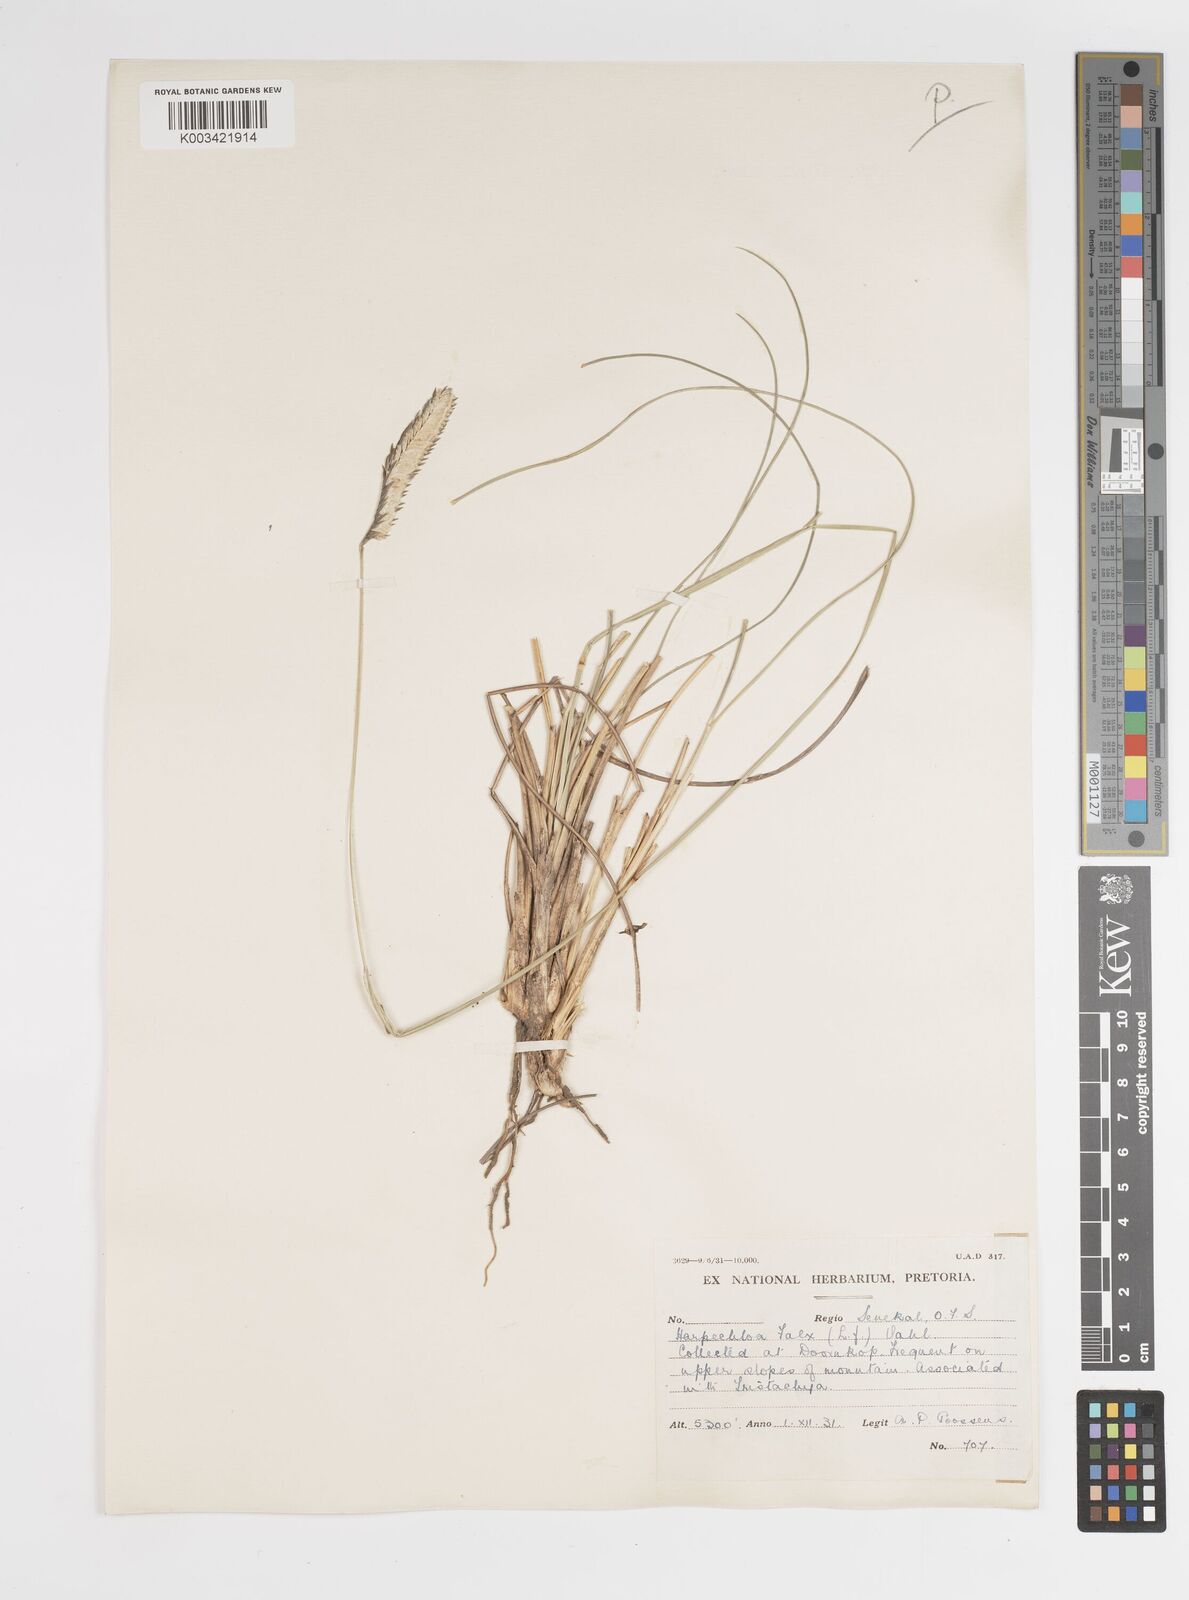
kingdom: Plantae
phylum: Tracheophyta
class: Liliopsida
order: Poales
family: Poaceae
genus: Harpochloa
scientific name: Harpochloa falx
